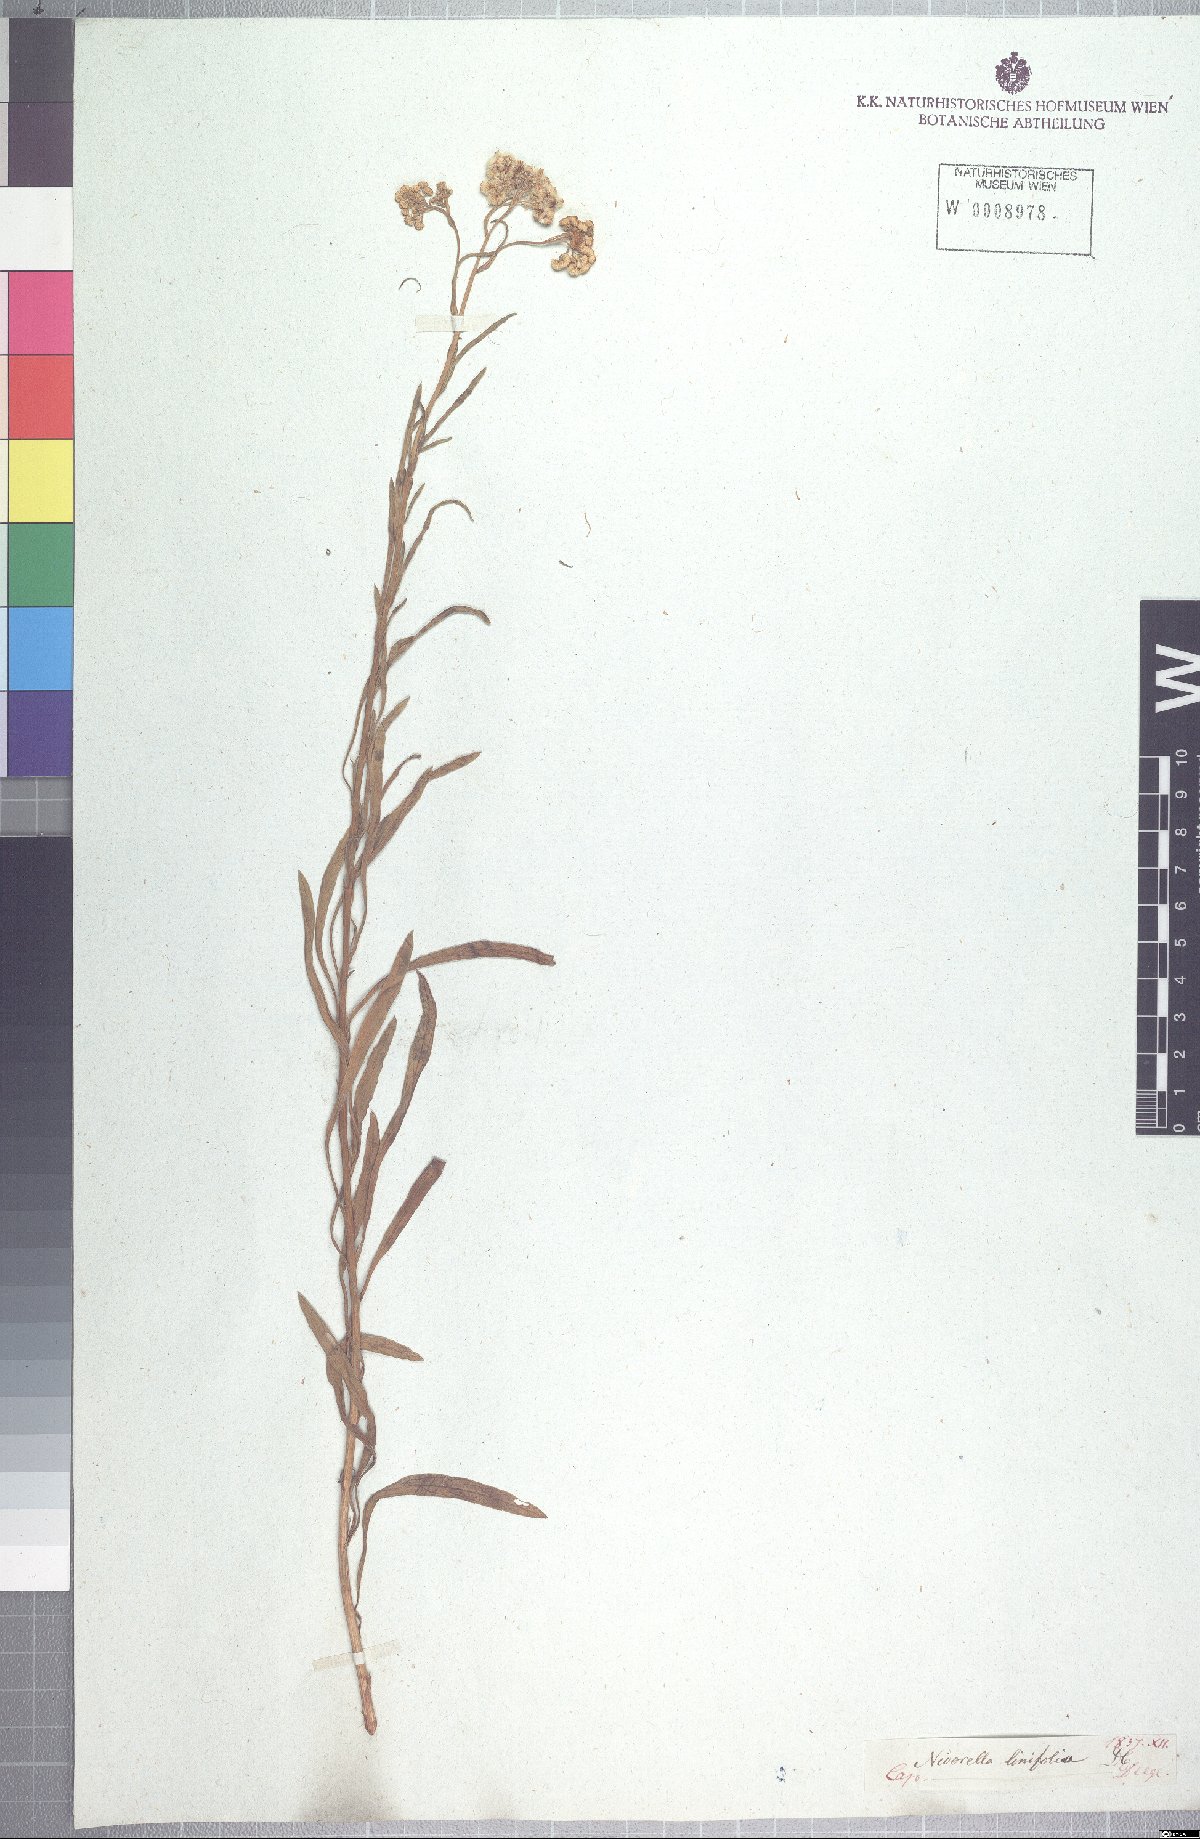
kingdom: Plantae
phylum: Tracheophyta
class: Magnoliopsida
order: Asterales
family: Asteraceae
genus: Nidorella
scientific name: Nidorella linifolia
